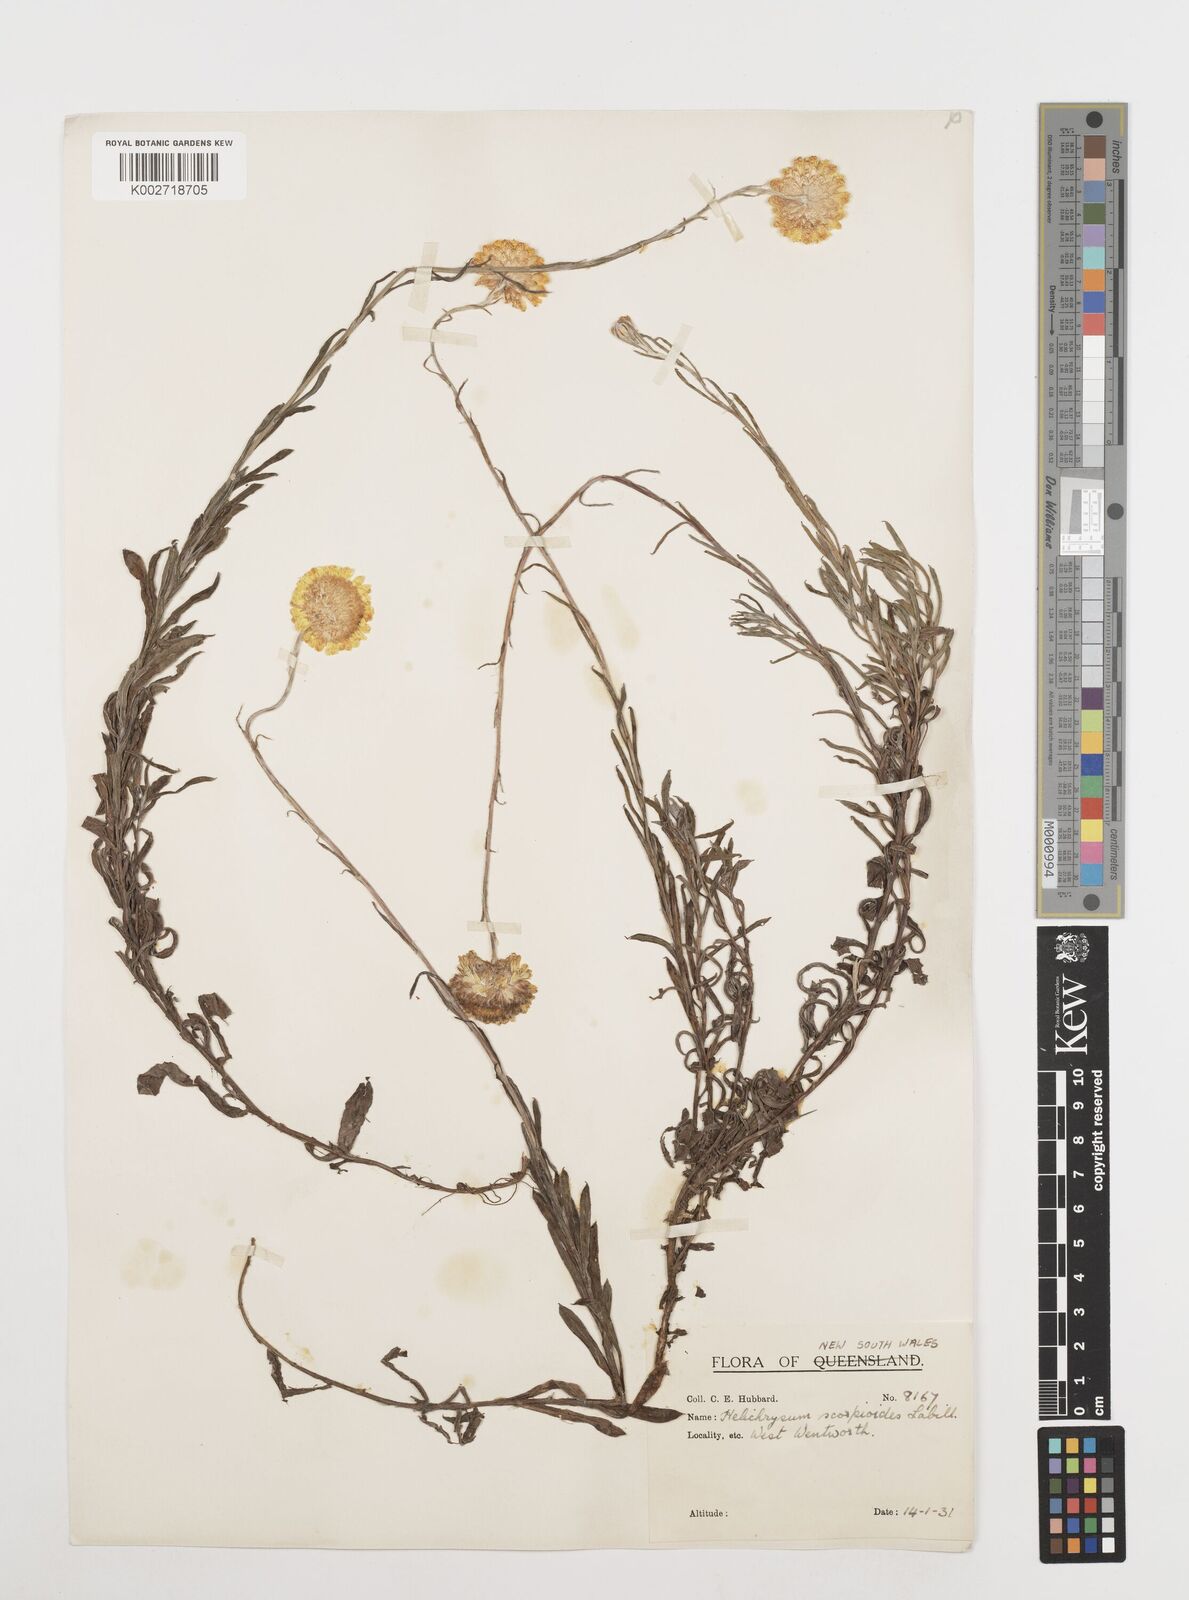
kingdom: Plantae
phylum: Tracheophyta
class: Magnoliopsida
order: Asterales
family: Asteraceae
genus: Coronidium
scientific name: Coronidium scorpioides
